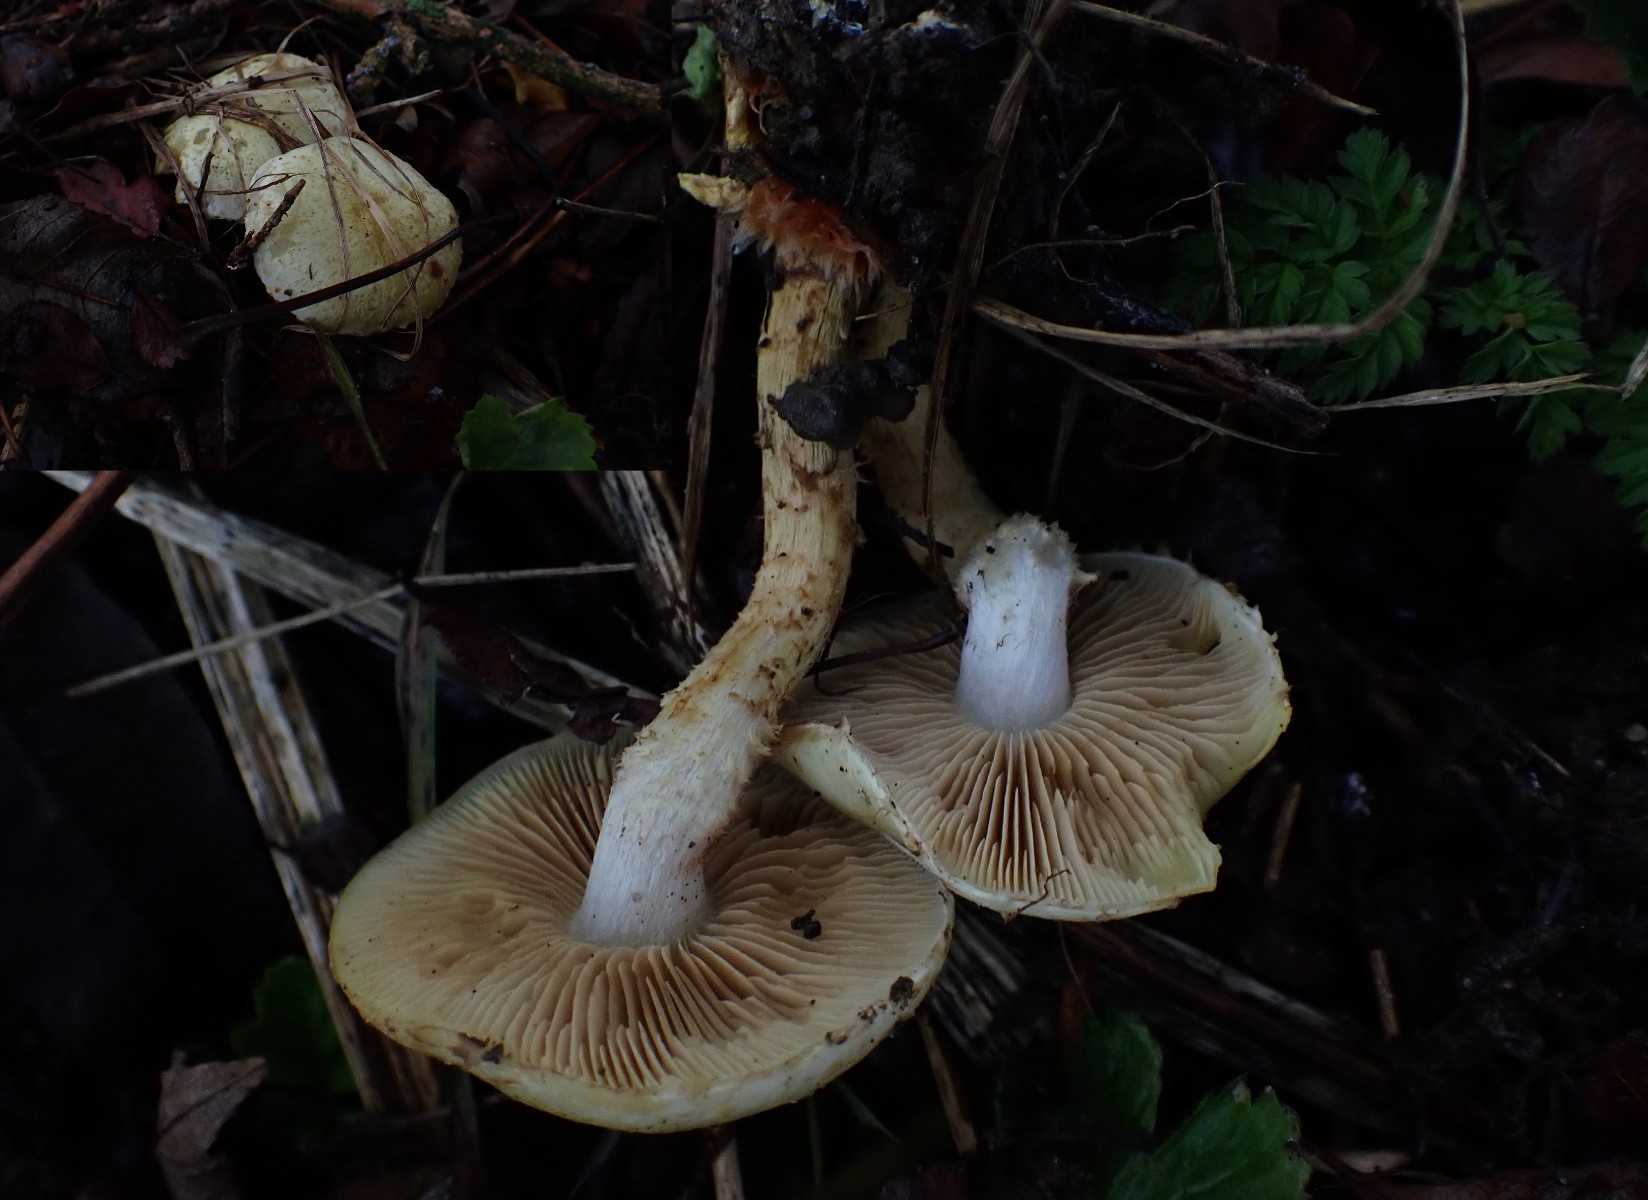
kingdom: Fungi
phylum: Basidiomycota
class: Agaricomycetes
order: Agaricales
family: Strophariaceae
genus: Pholiota
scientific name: Pholiota gummosa
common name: grøngul skælhat
